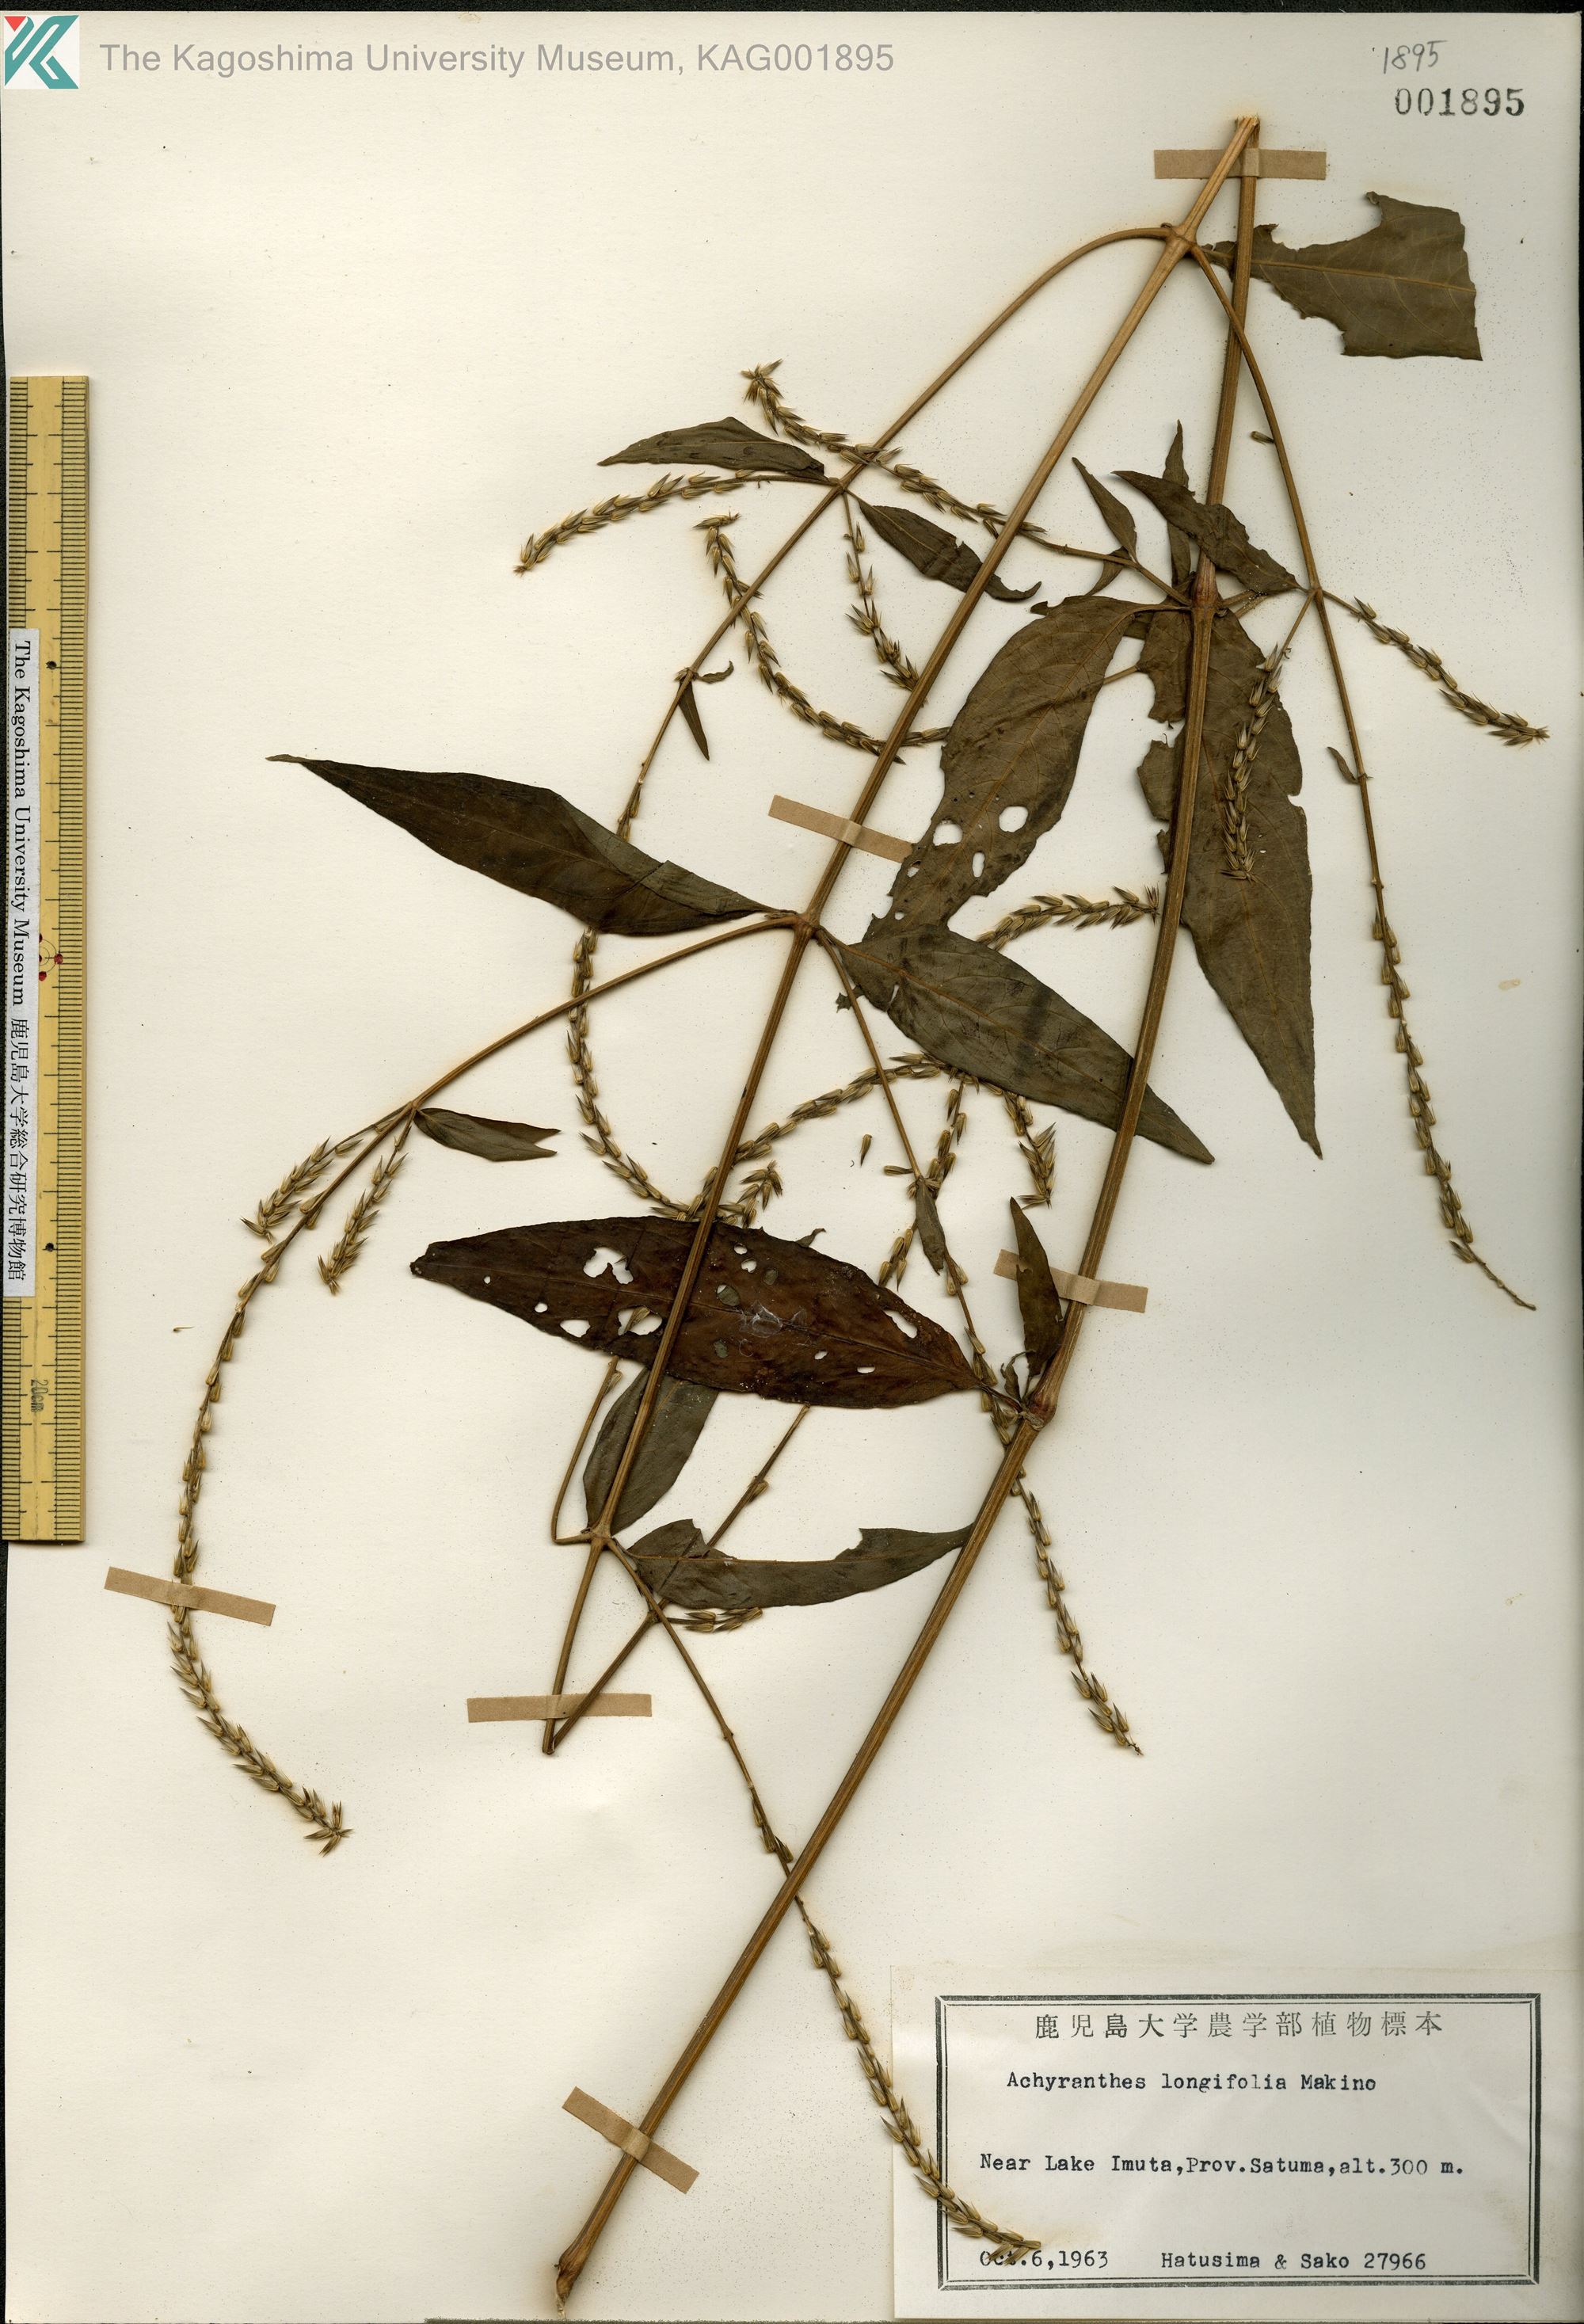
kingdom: Plantae
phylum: Tracheophyta
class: Magnoliopsida
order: Caryophyllales
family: Amaranthaceae
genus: Achyranthes
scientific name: Achyranthes bidentata
